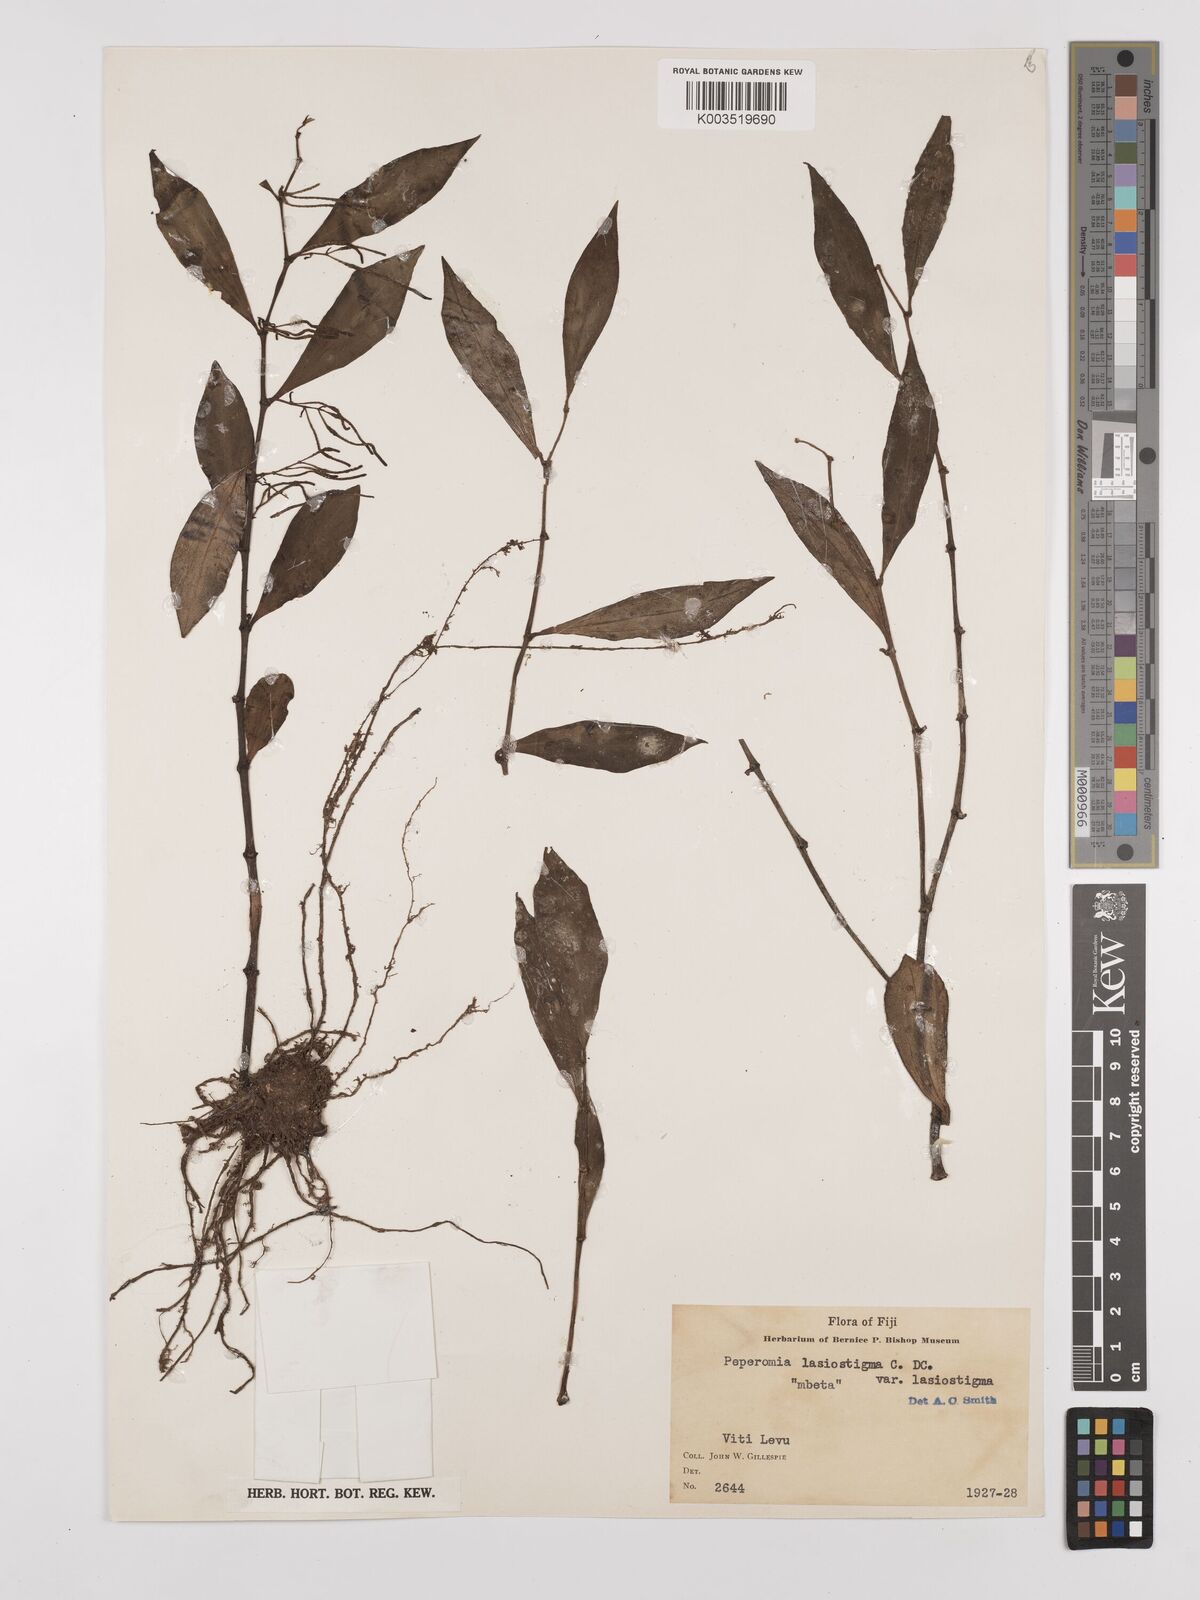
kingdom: Plantae
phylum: Tracheophyta
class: Magnoliopsida
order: Piperales
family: Piperaceae
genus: Peperomia
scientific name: Peperomia lasiostigma
